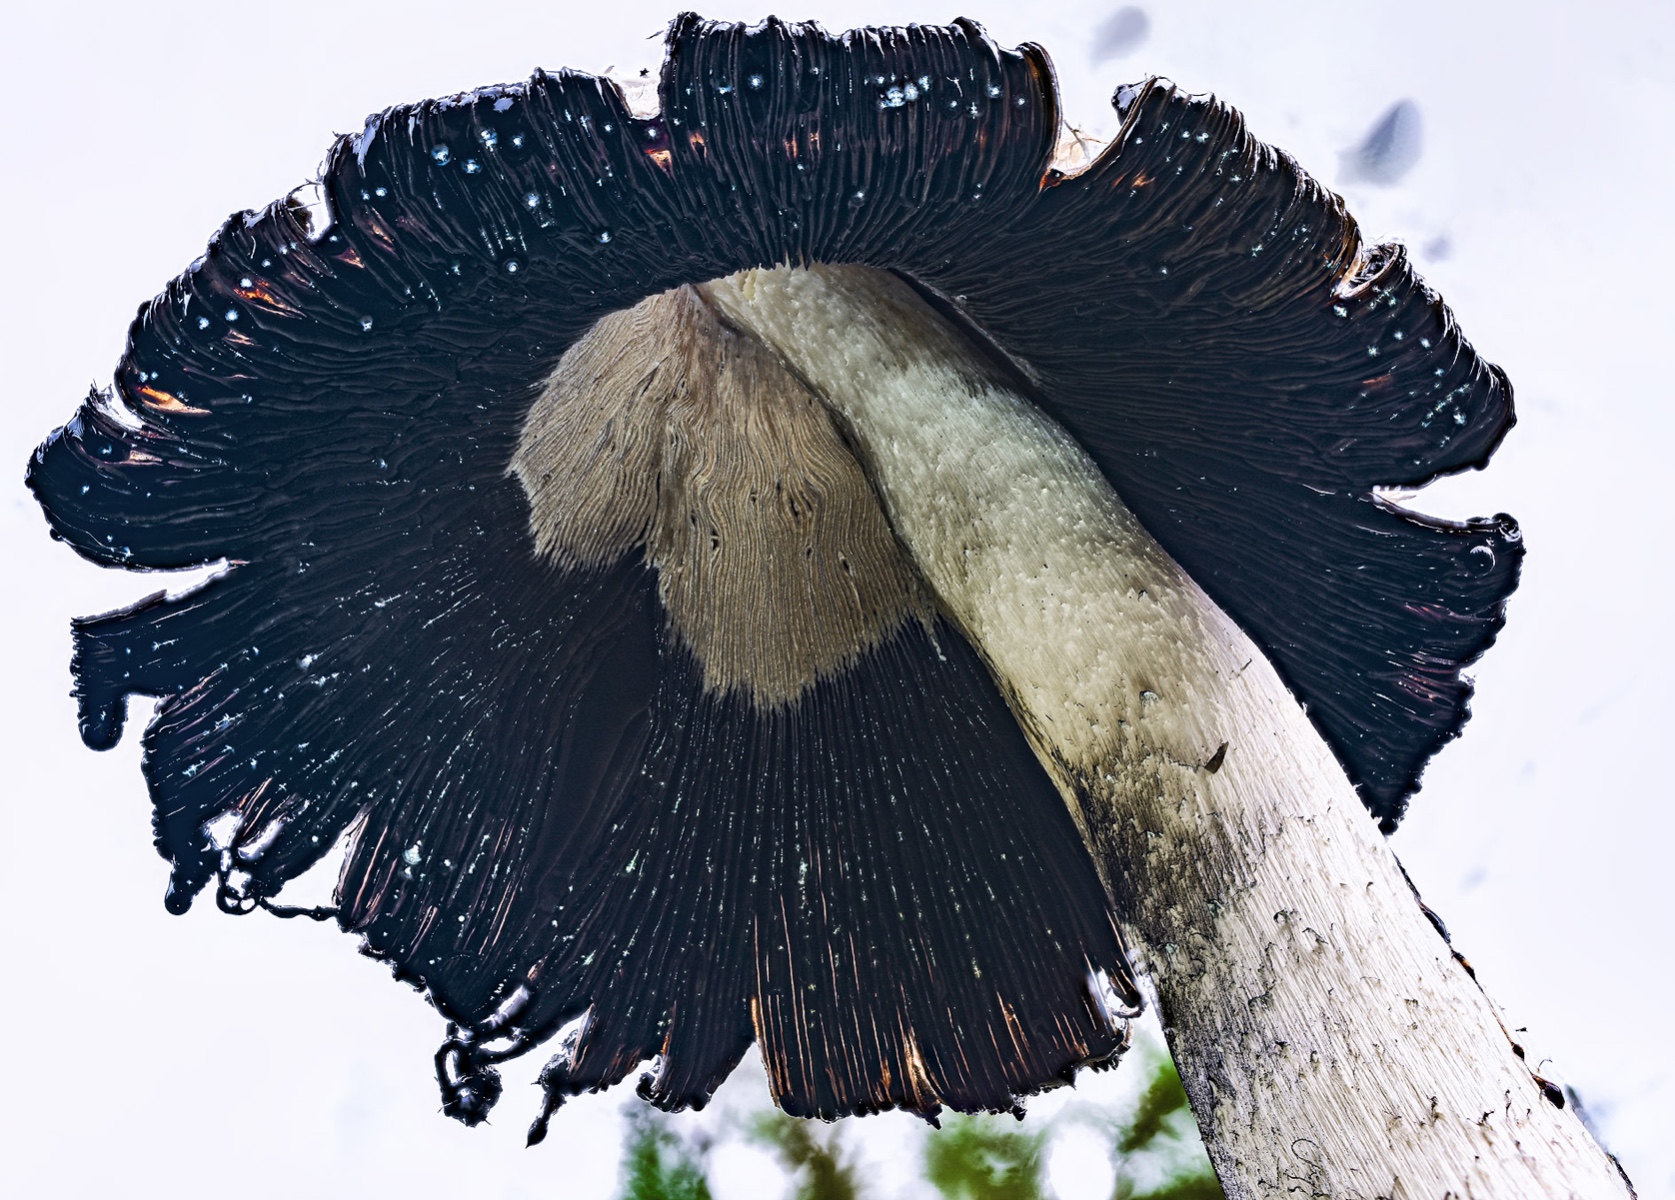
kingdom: Fungi
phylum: Basidiomycota
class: Agaricomycetes
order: Agaricales
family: Agaricaceae
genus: Coprinus
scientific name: Coprinus comatus
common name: stor parykhat
